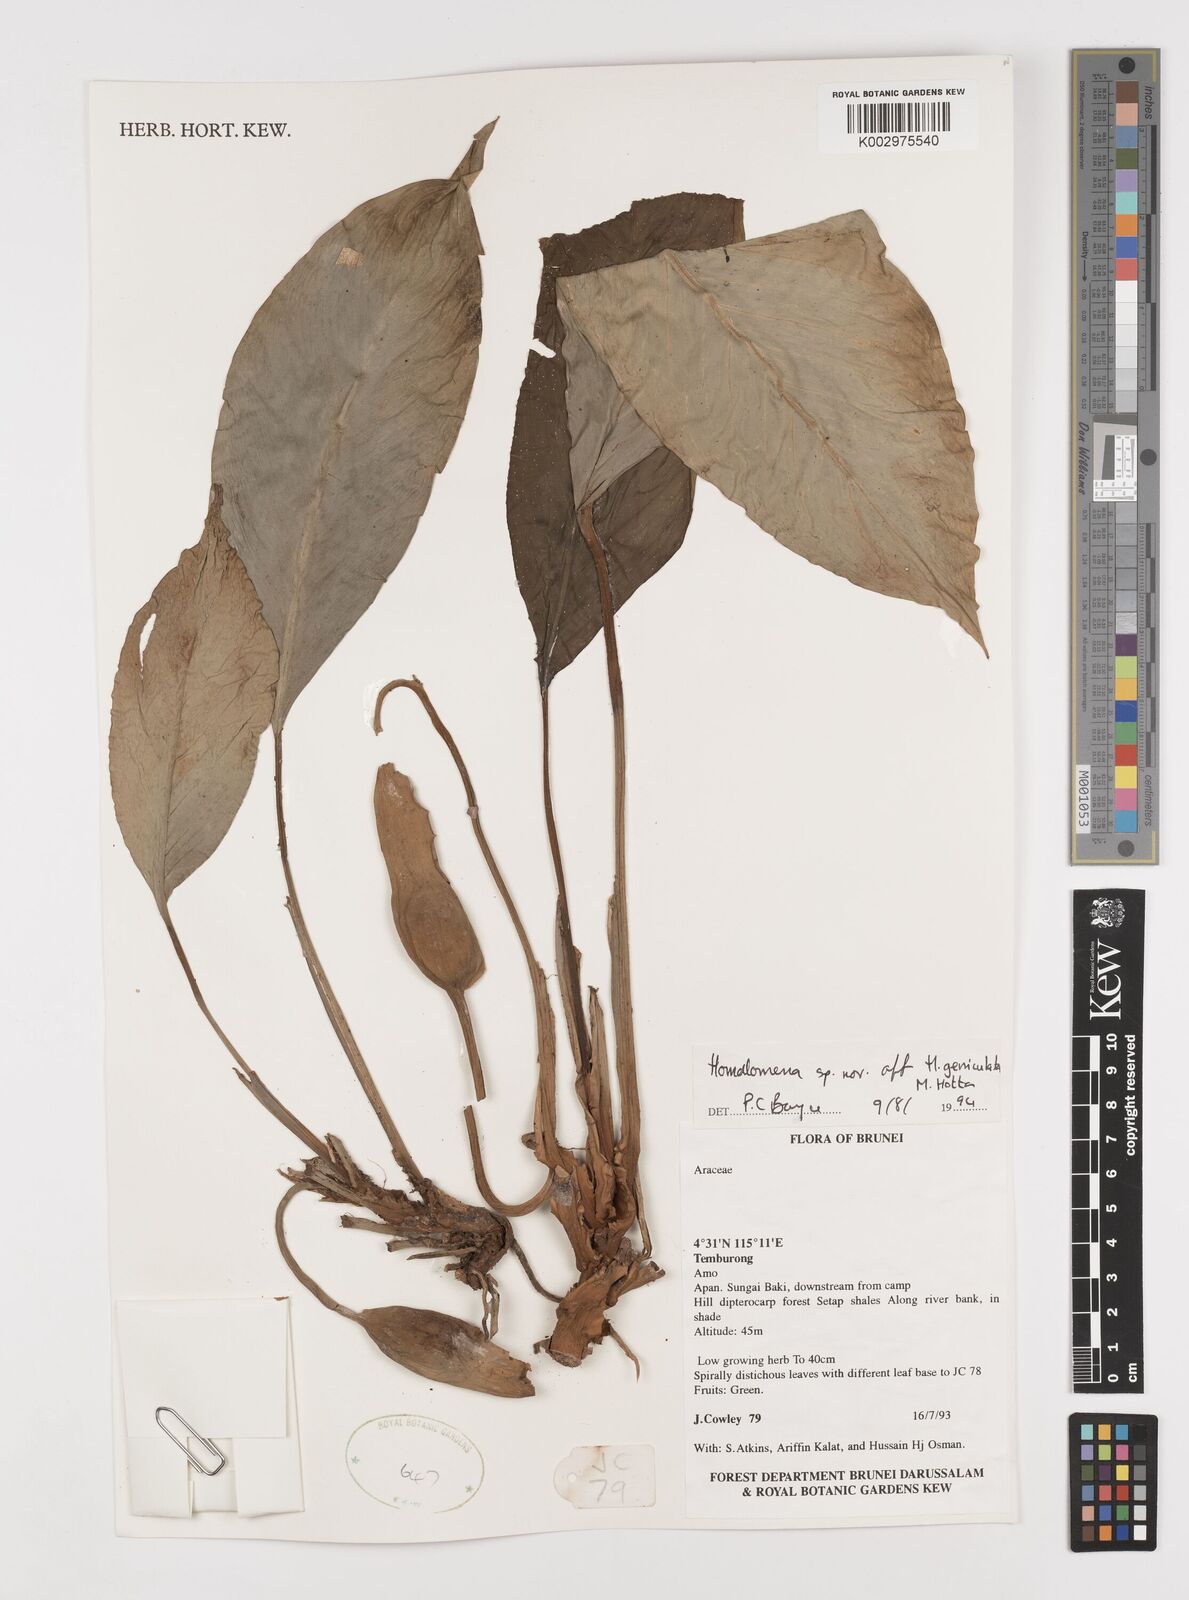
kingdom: Plantae
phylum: Tracheophyta
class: Liliopsida
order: Alismatales
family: Araceae
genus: Homalomena
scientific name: Homalomena punctulata
